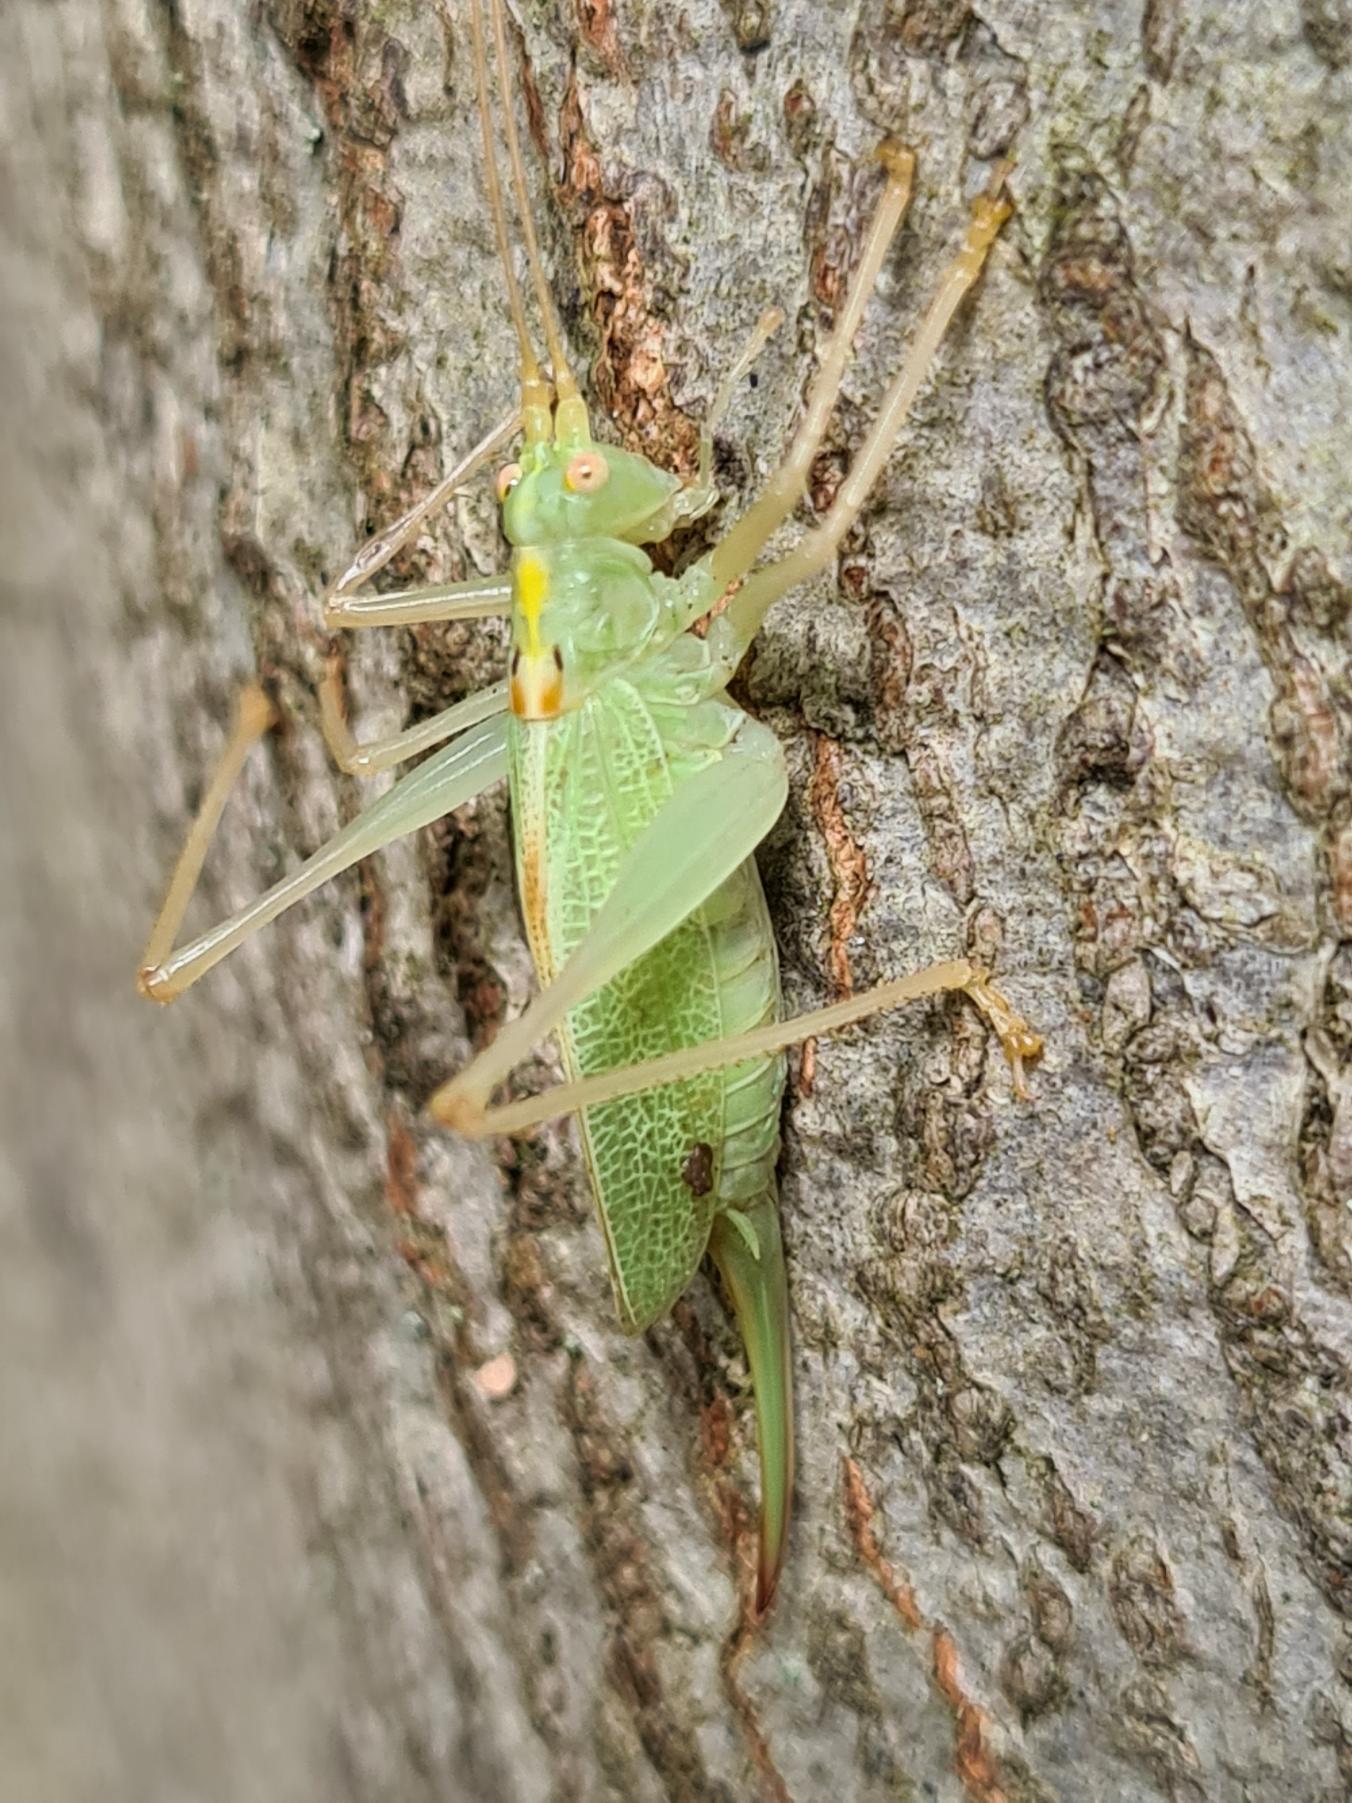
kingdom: Animalia
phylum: Arthropoda
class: Insecta
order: Orthoptera
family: Tettigoniidae
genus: Meconema
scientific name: Meconema thalassinum
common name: Egegræshoppe
